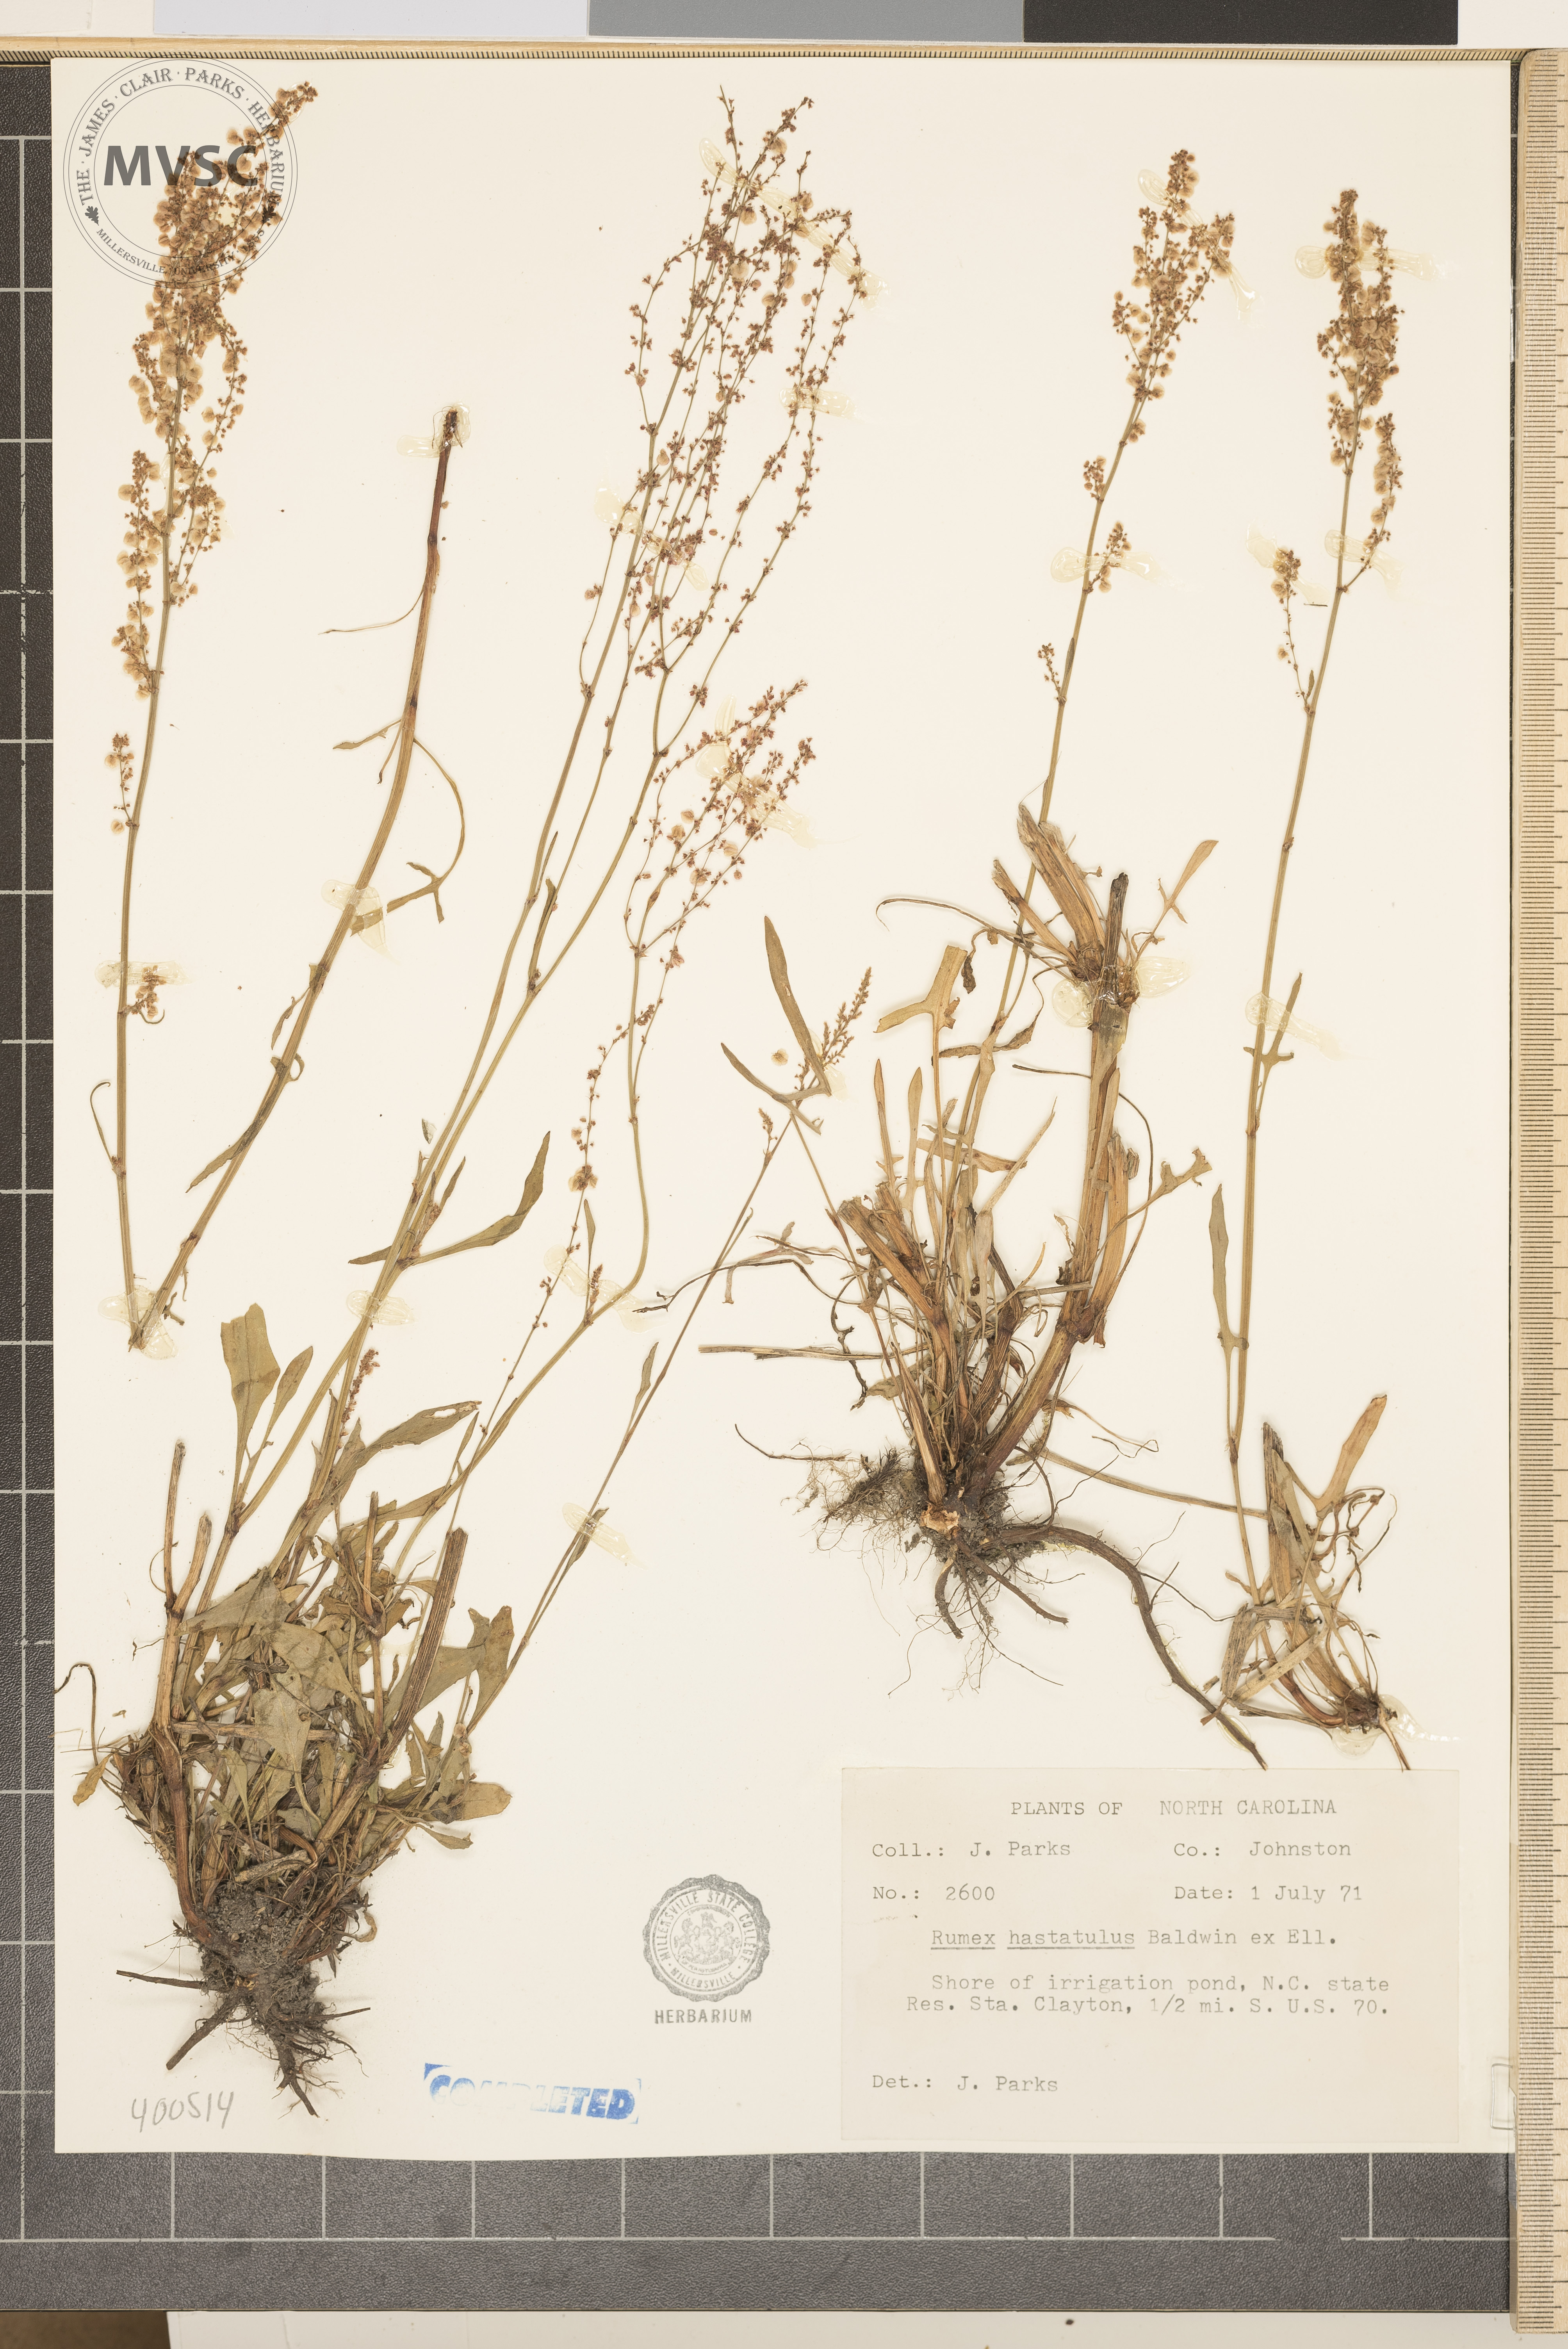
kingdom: Plantae
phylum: Tracheophyta
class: Magnoliopsida
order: Caryophyllales
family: Polygonaceae
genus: Rumex
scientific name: Rumex hastatulus
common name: dock
